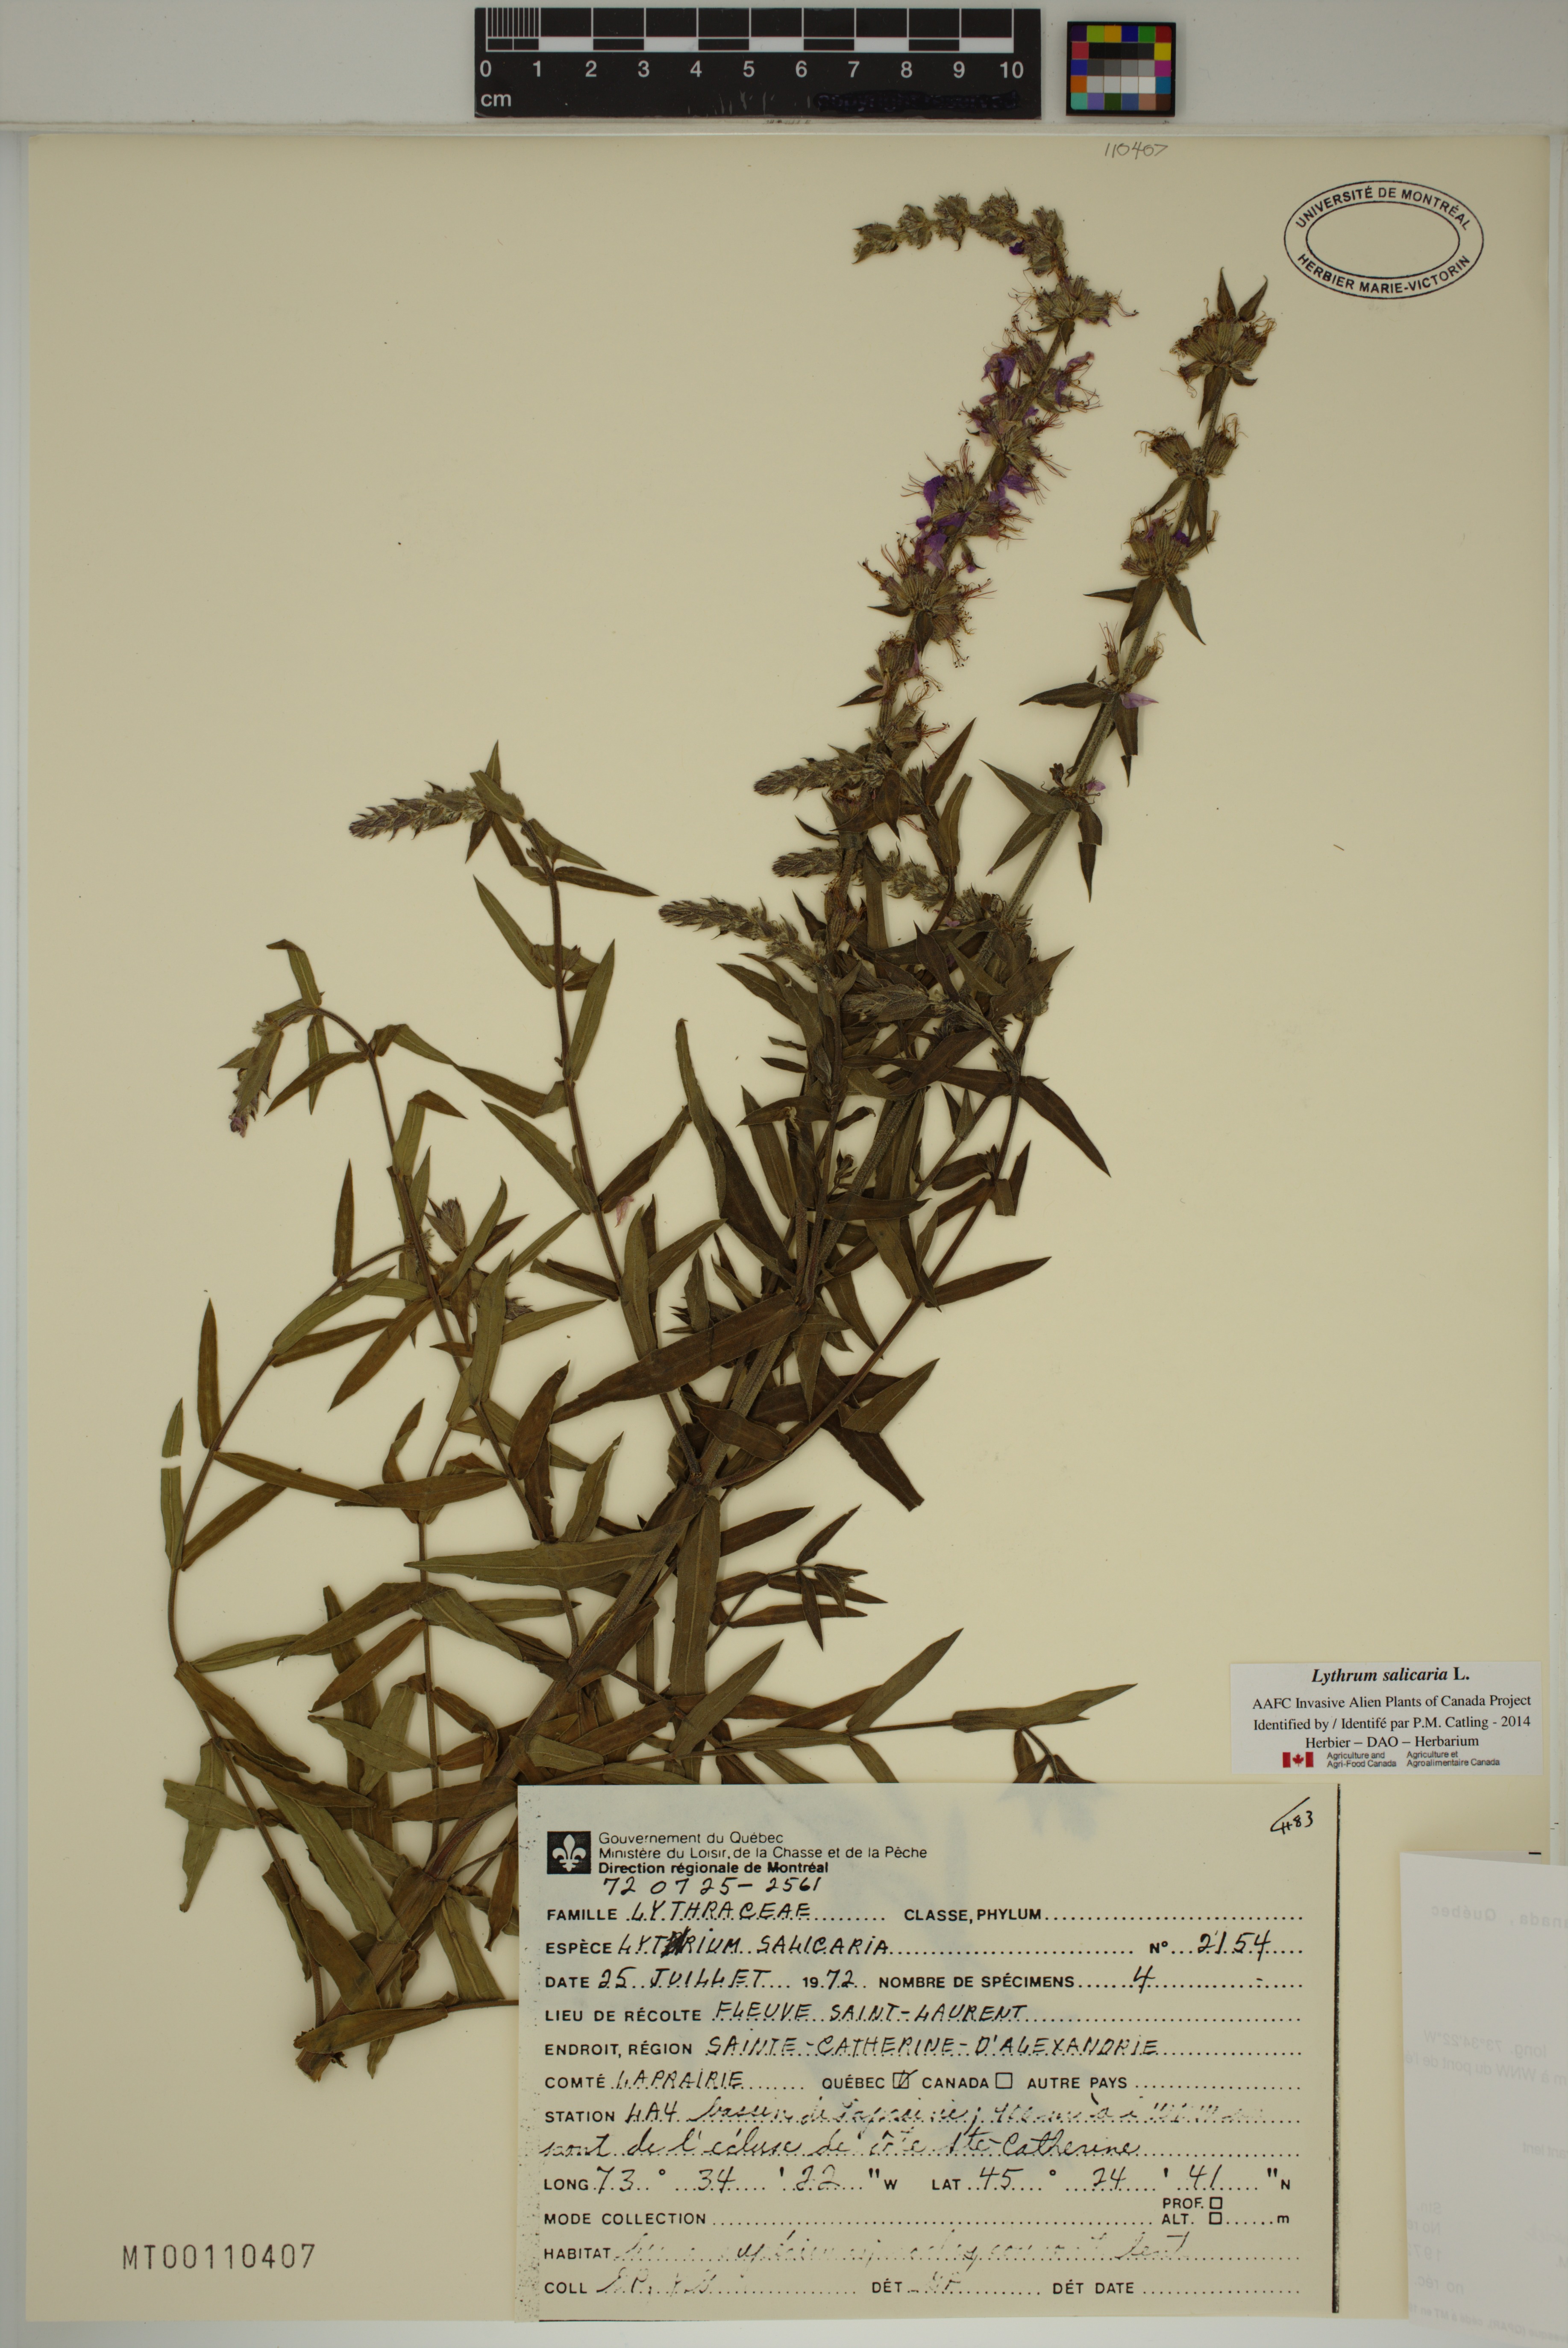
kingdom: Plantae
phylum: Tracheophyta
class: Magnoliopsida
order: Myrtales
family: Lythraceae
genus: Lythrum
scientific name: Lythrum salicaria
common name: Purple loosestrife
